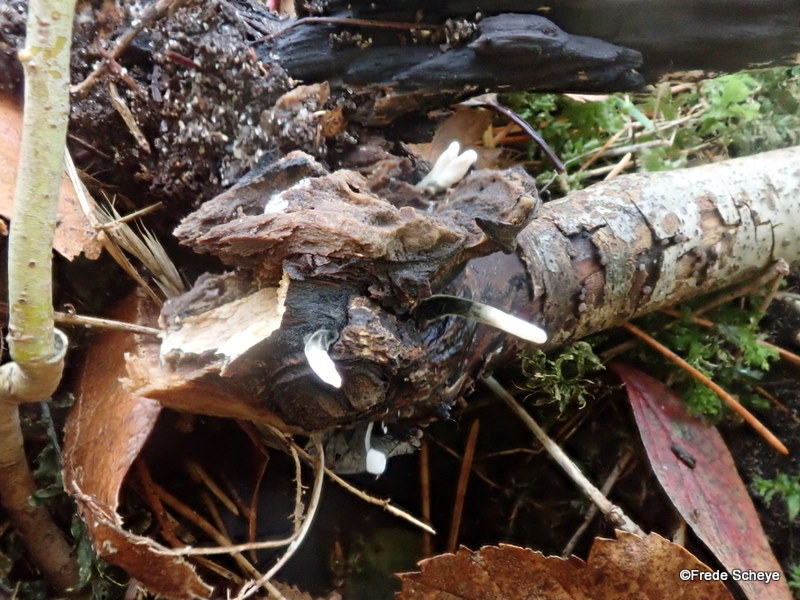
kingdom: Fungi
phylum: Ascomycota
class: Sordariomycetes
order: Xylariales
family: Xylariaceae
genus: Xylaria
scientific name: Xylaria hypoxylon
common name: grenet stødsvamp
